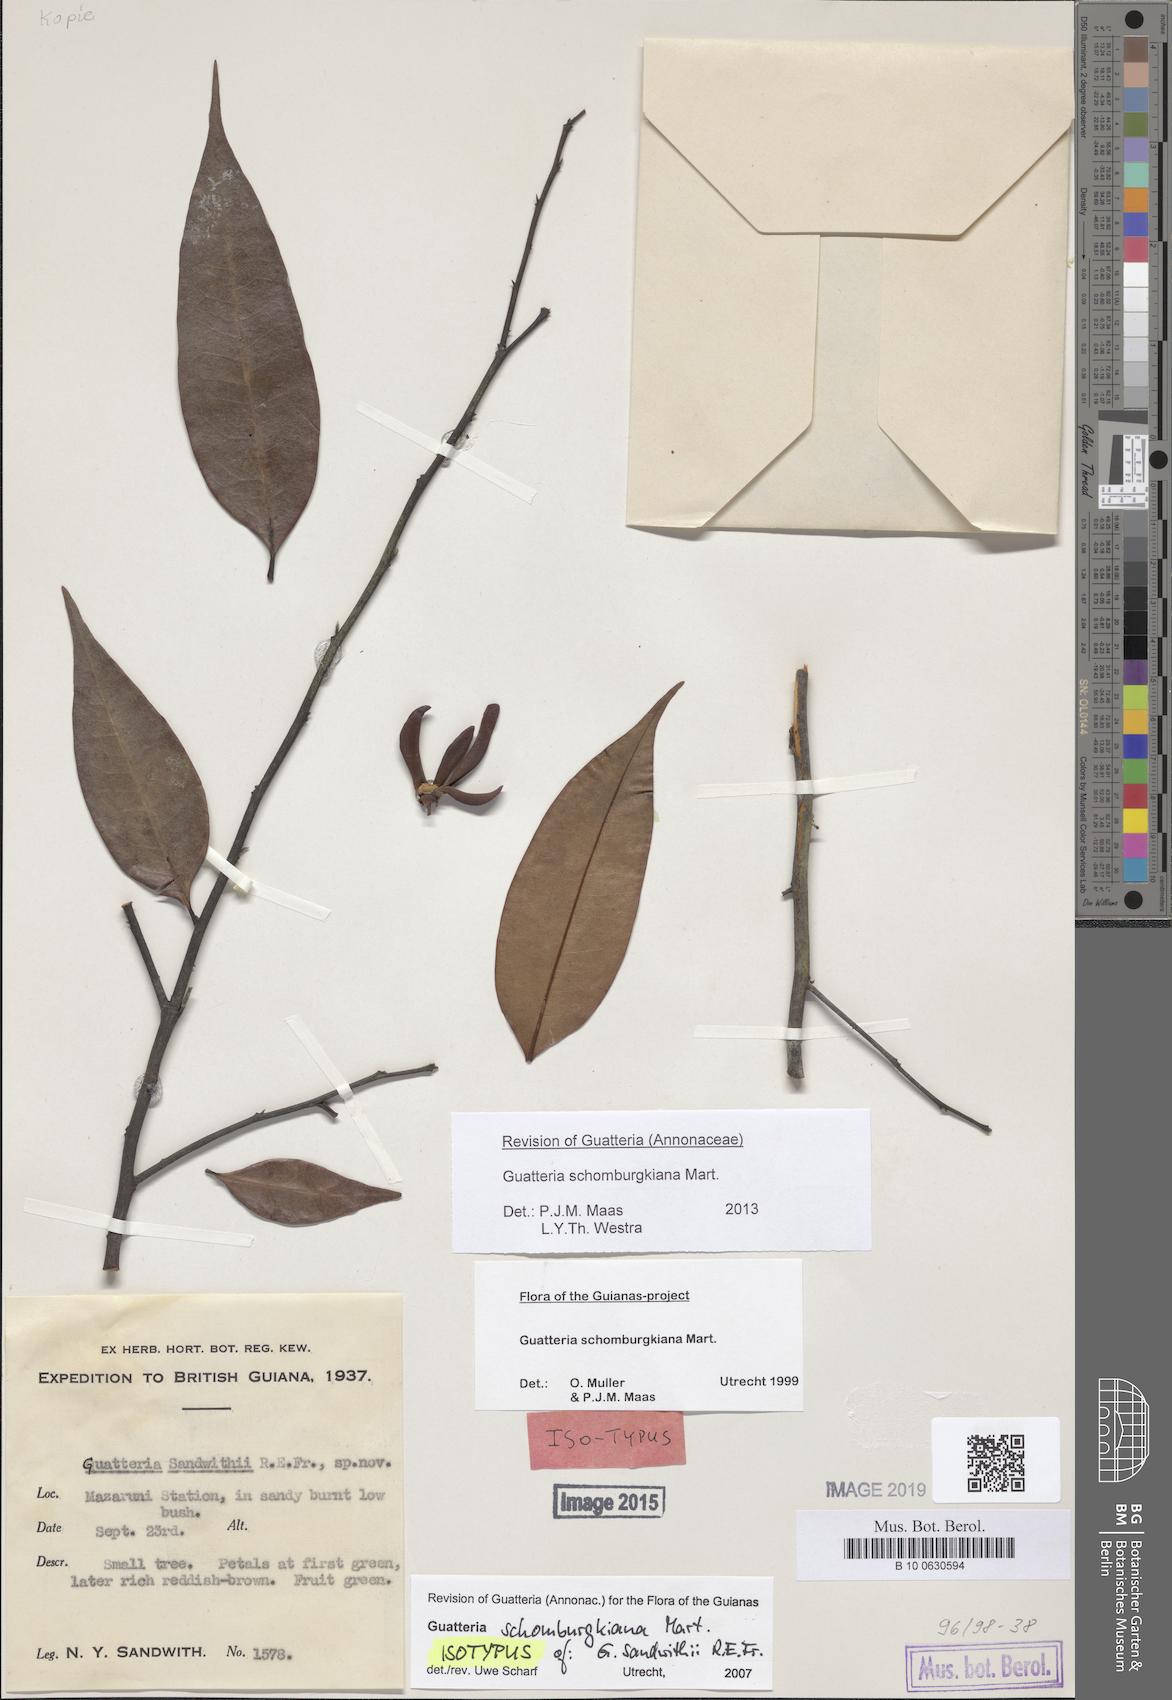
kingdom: Plantae
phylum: Tracheophyta
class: Magnoliopsida
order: Magnoliales
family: Annonaceae
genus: Guatteria
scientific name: Guatteria schomburgkiana
